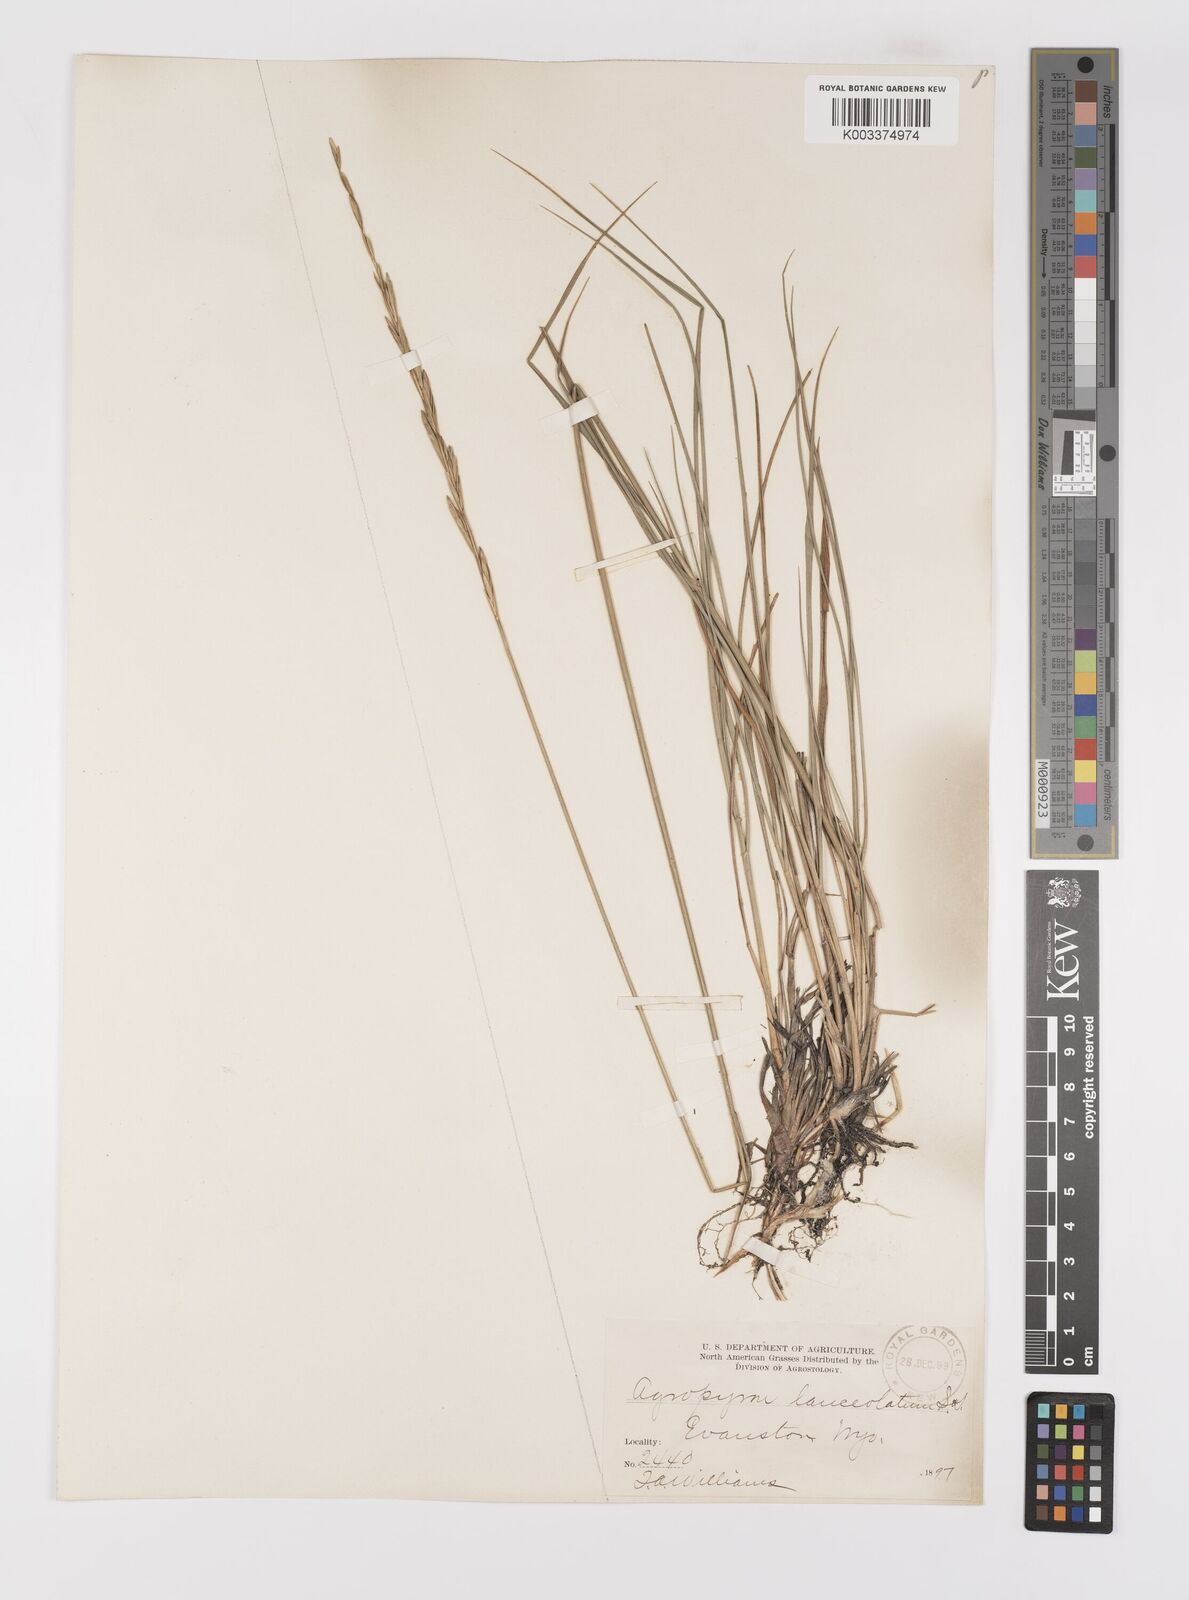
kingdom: Plantae
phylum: Tracheophyta
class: Liliopsida
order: Poales
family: Poaceae
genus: Elymus
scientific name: Elymus lanceolatus
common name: Thick-spike wheatgrass
